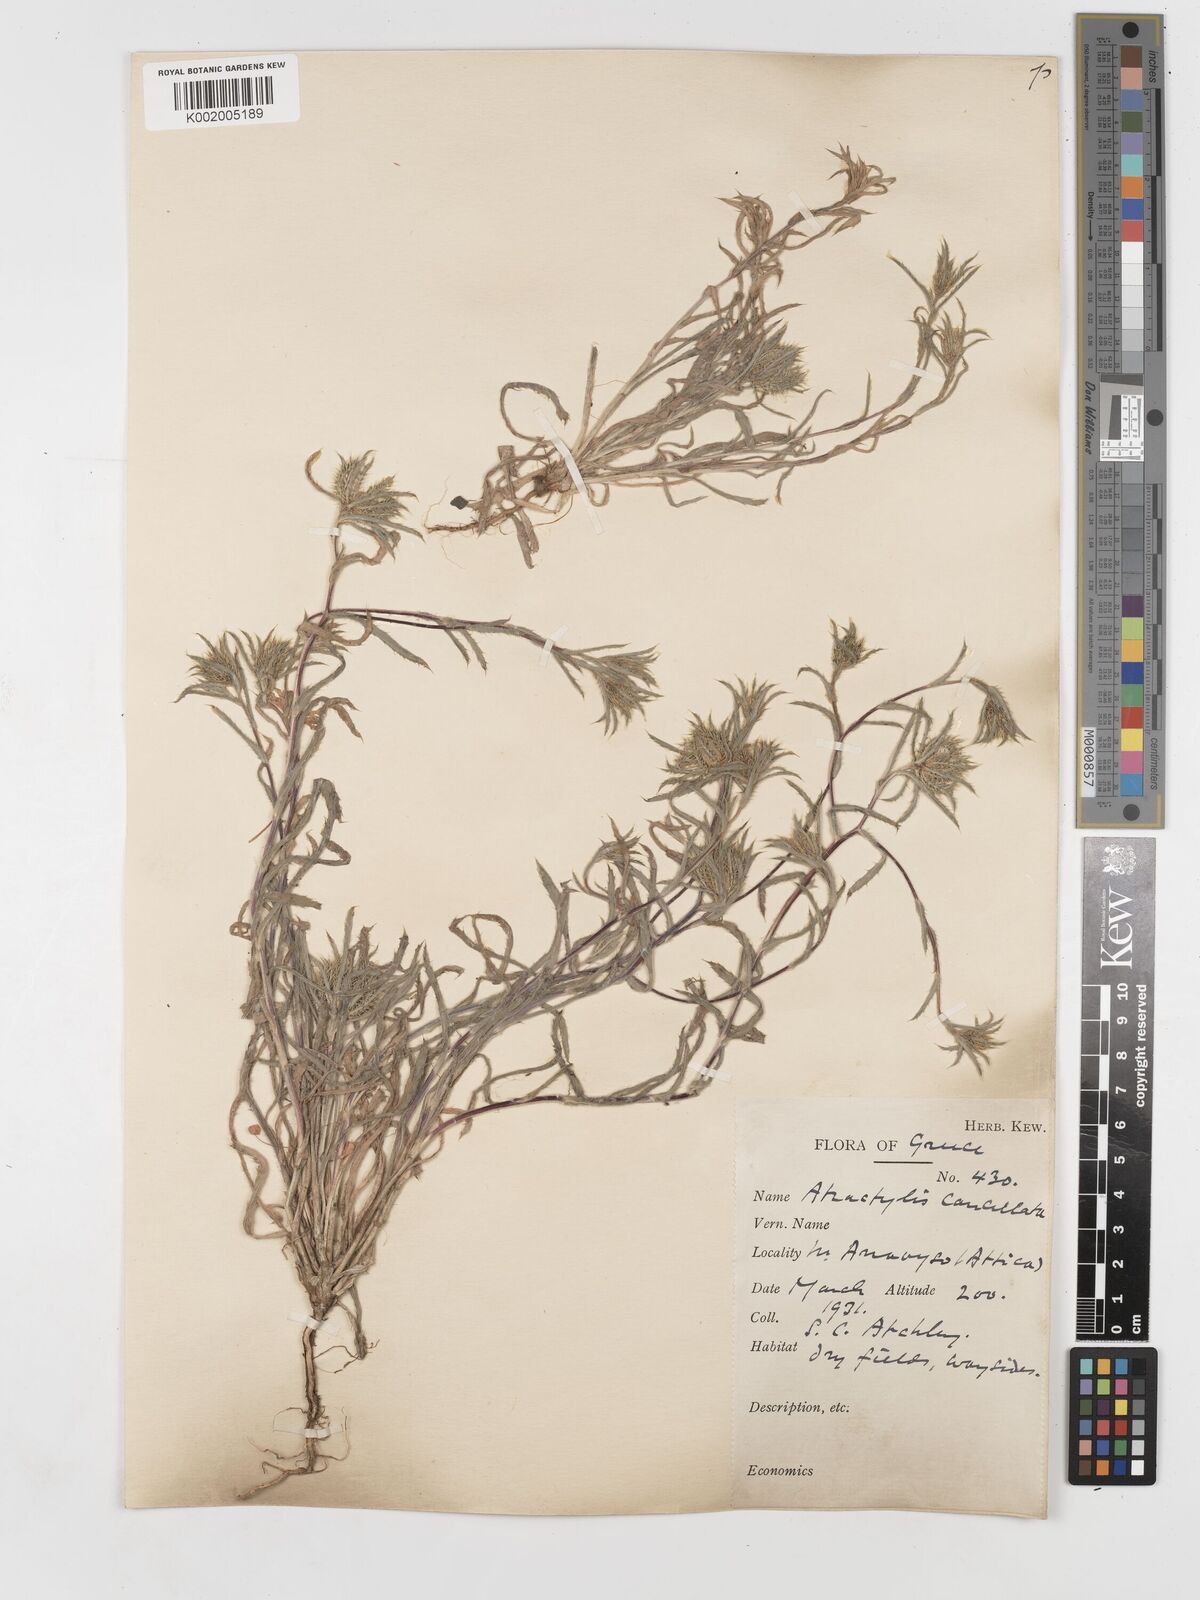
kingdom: Plantae
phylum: Tracheophyta
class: Magnoliopsida
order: Asterales
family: Asteraceae
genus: Atractylis
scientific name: Atractylis cancellata
